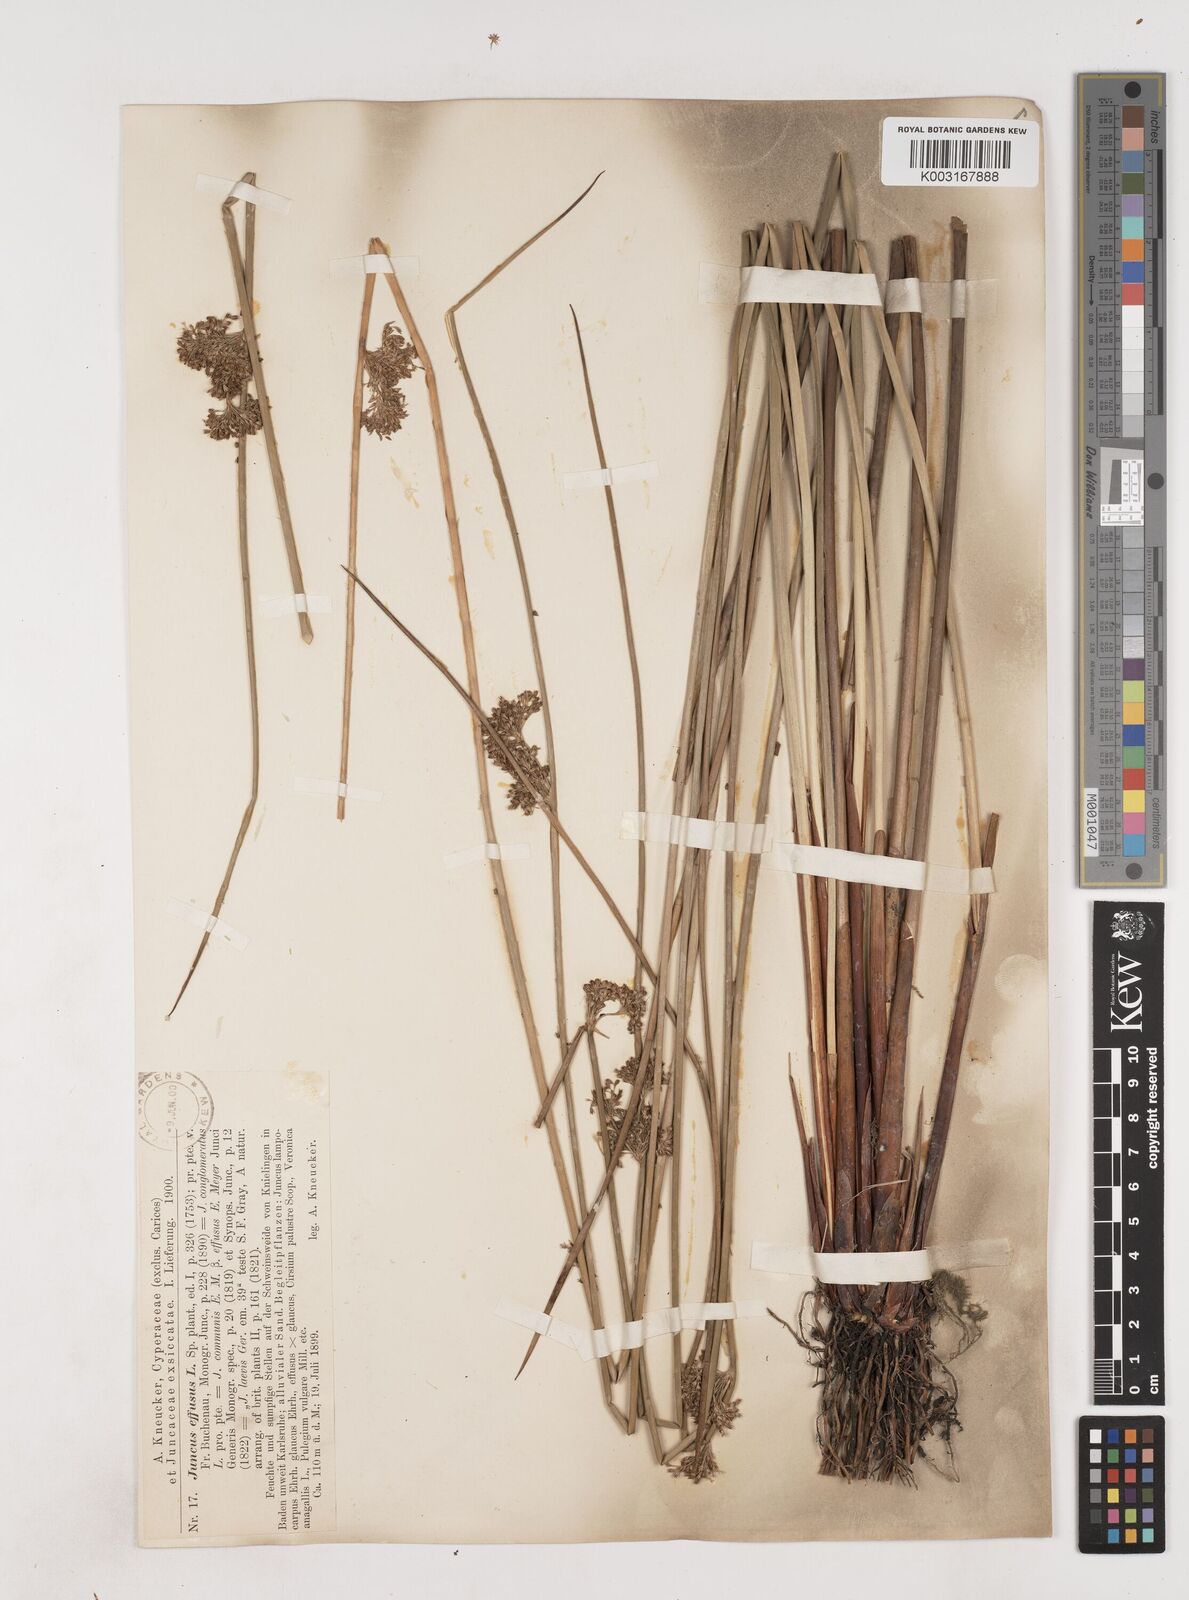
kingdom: Plantae
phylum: Tracheophyta
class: Liliopsida
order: Poales
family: Juncaceae
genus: Juncus
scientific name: Juncus effusus
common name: Soft rush
